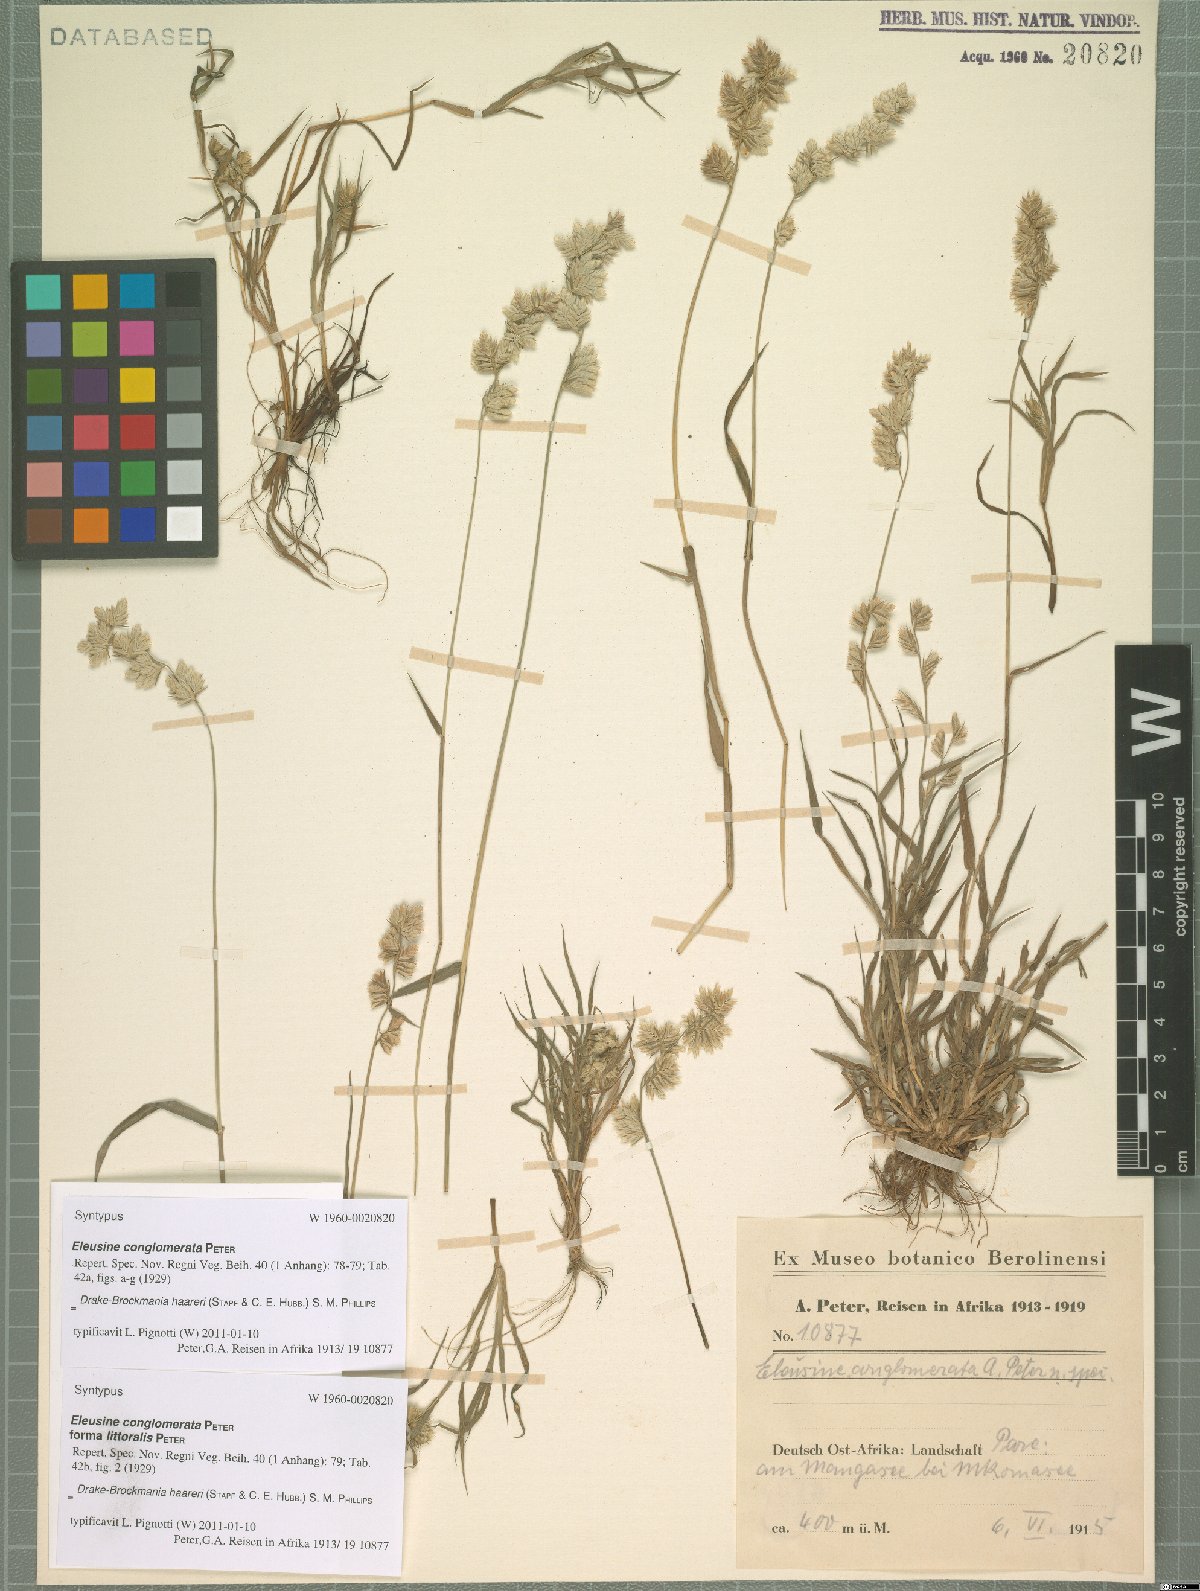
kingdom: Plantae
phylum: Tracheophyta
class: Liliopsida
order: Poales
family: Poaceae
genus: Dinebra
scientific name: Dinebra haareri
